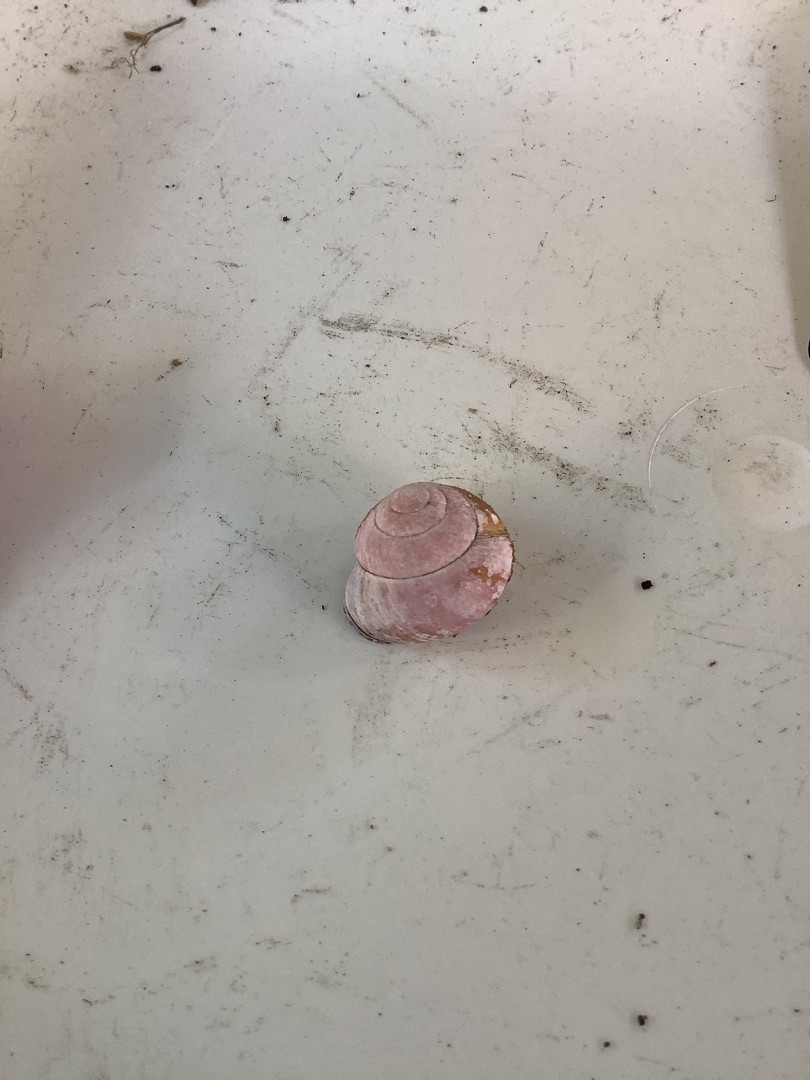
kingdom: Animalia
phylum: Mollusca
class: Gastropoda
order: Stylommatophora
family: Helicidae
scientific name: Helicidae
